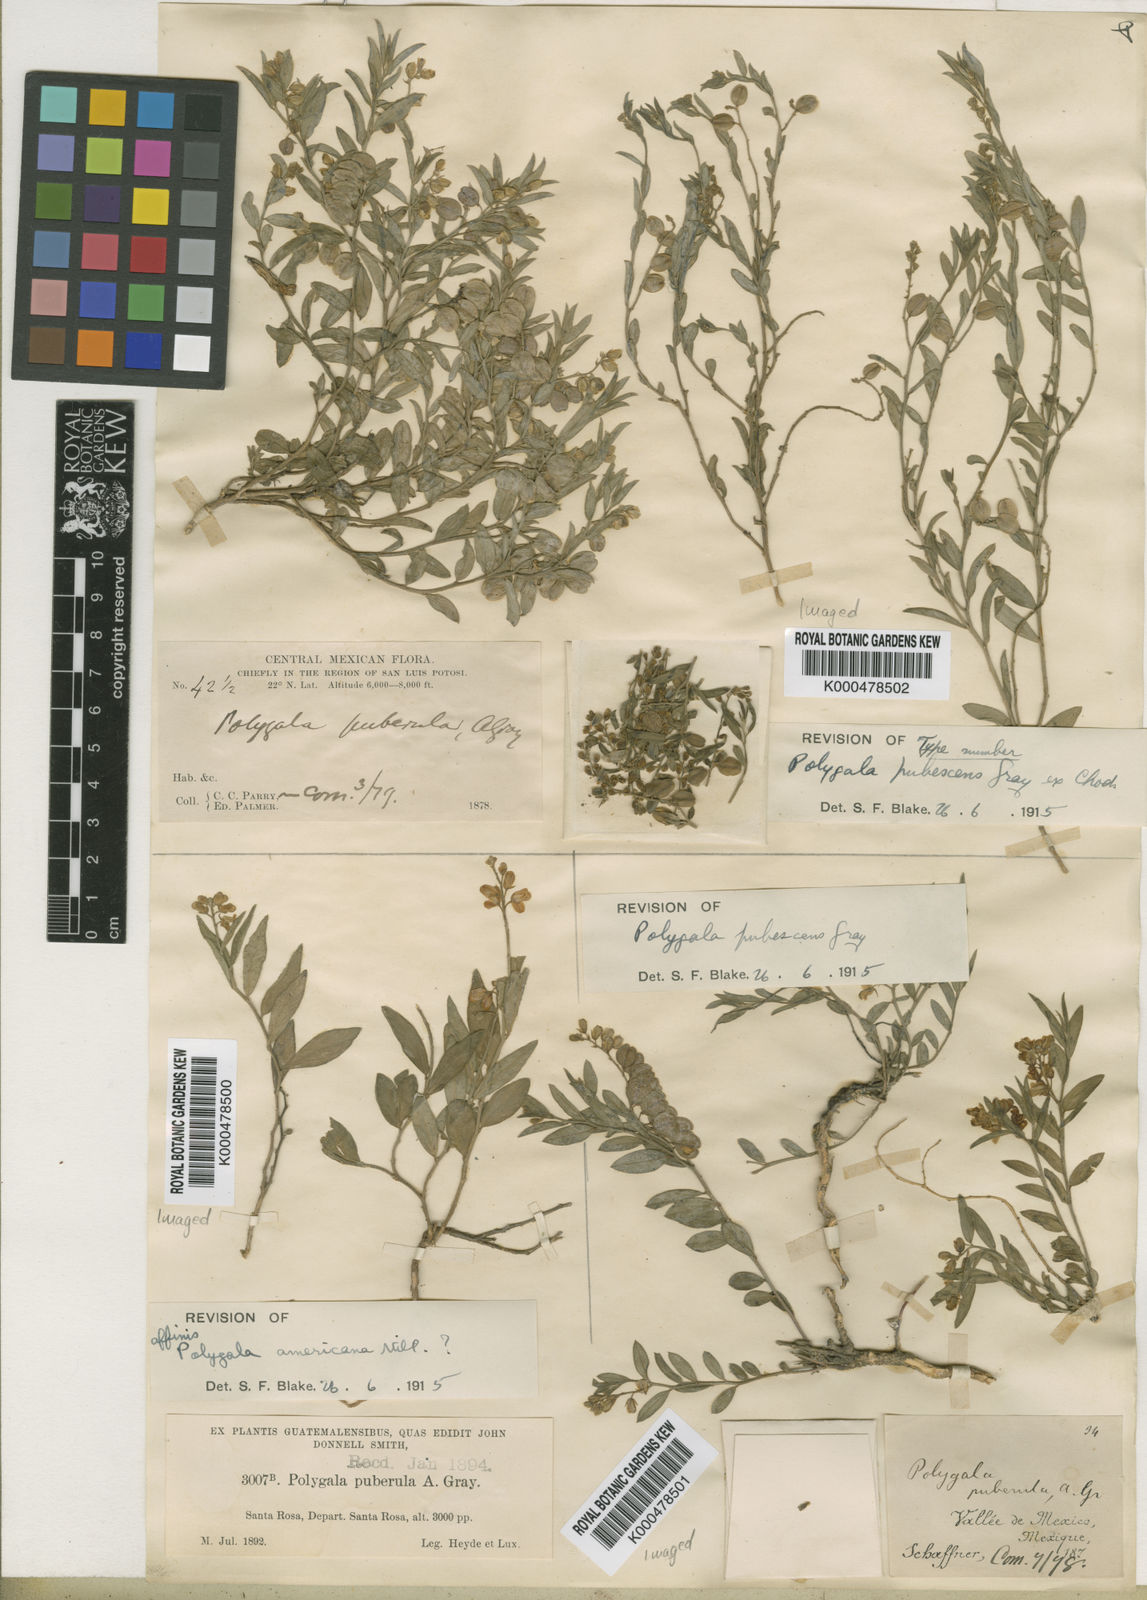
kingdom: Plantae
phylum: Tracheophyta
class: Magnoliopsida
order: Fabales
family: Polygalaceae
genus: Polygala
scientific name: Polygala compacta
